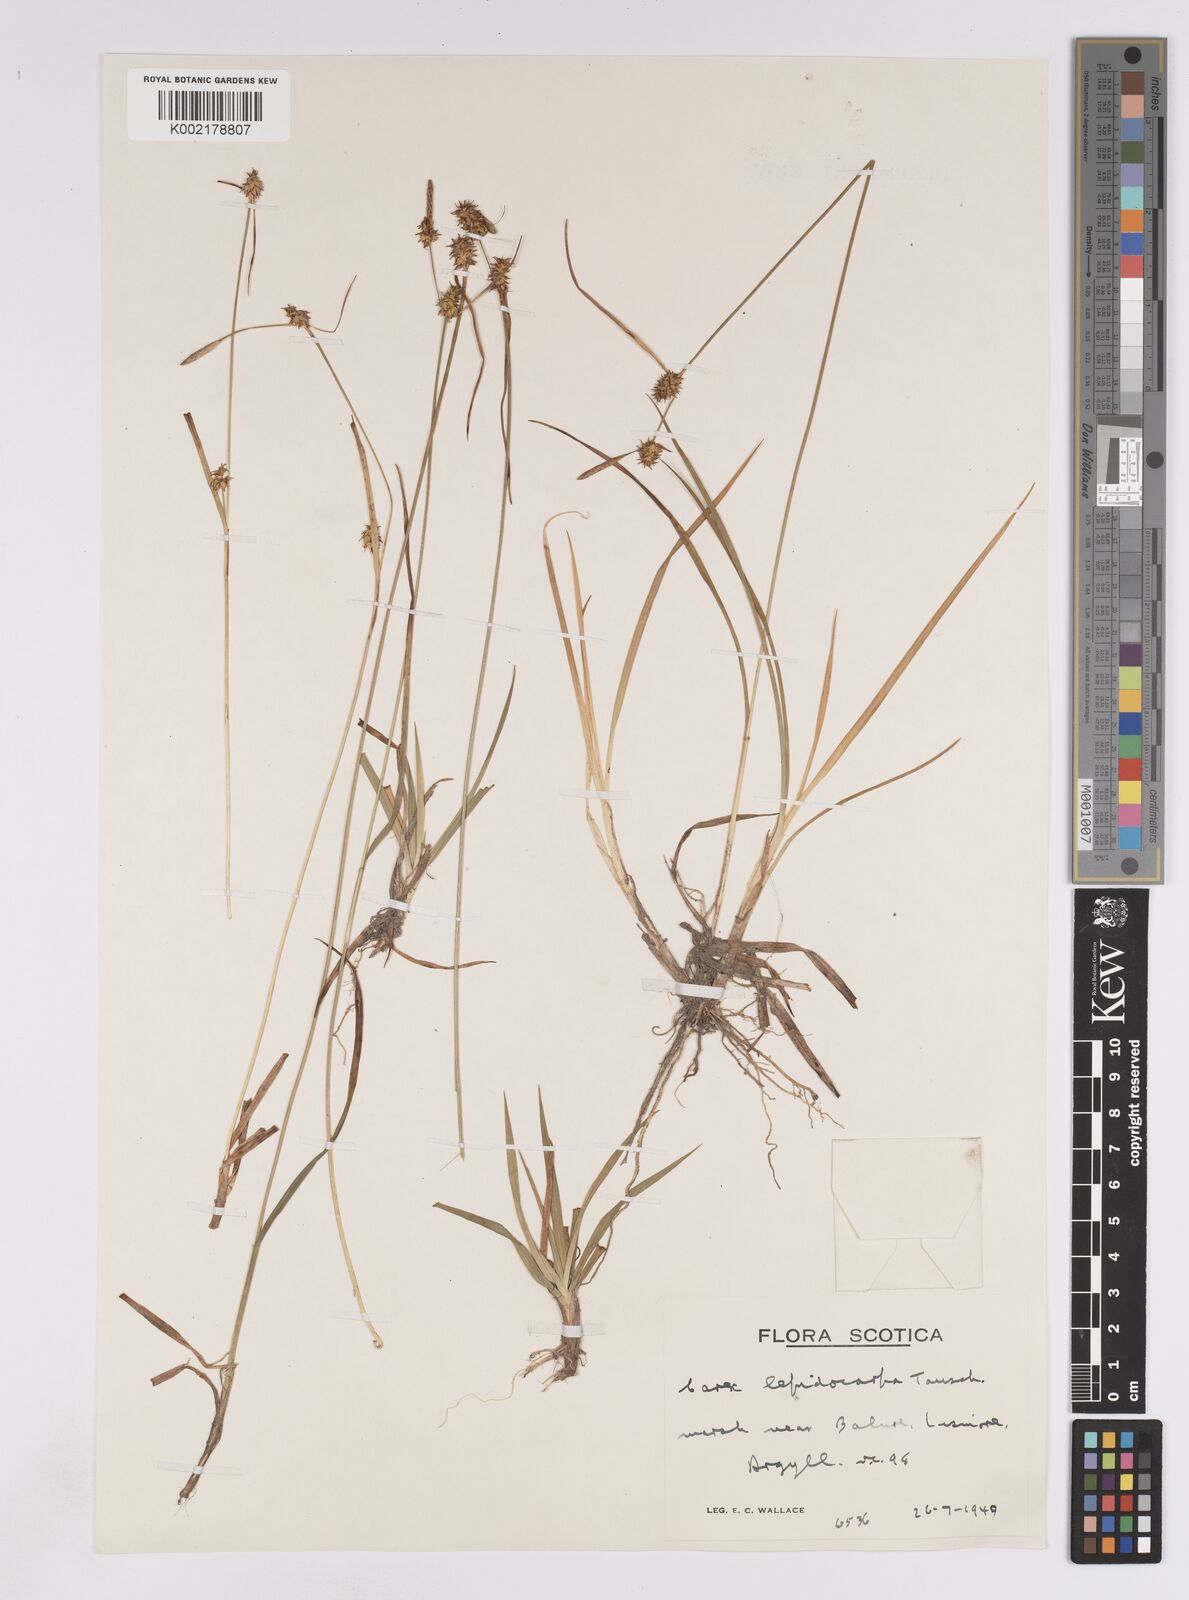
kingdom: Plantae
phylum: Tracheophyta
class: Liliopsida
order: Poales
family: Cyperaceae
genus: Carex
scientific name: Carex lepidocarpa
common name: Long-stalked yellow-sedge
